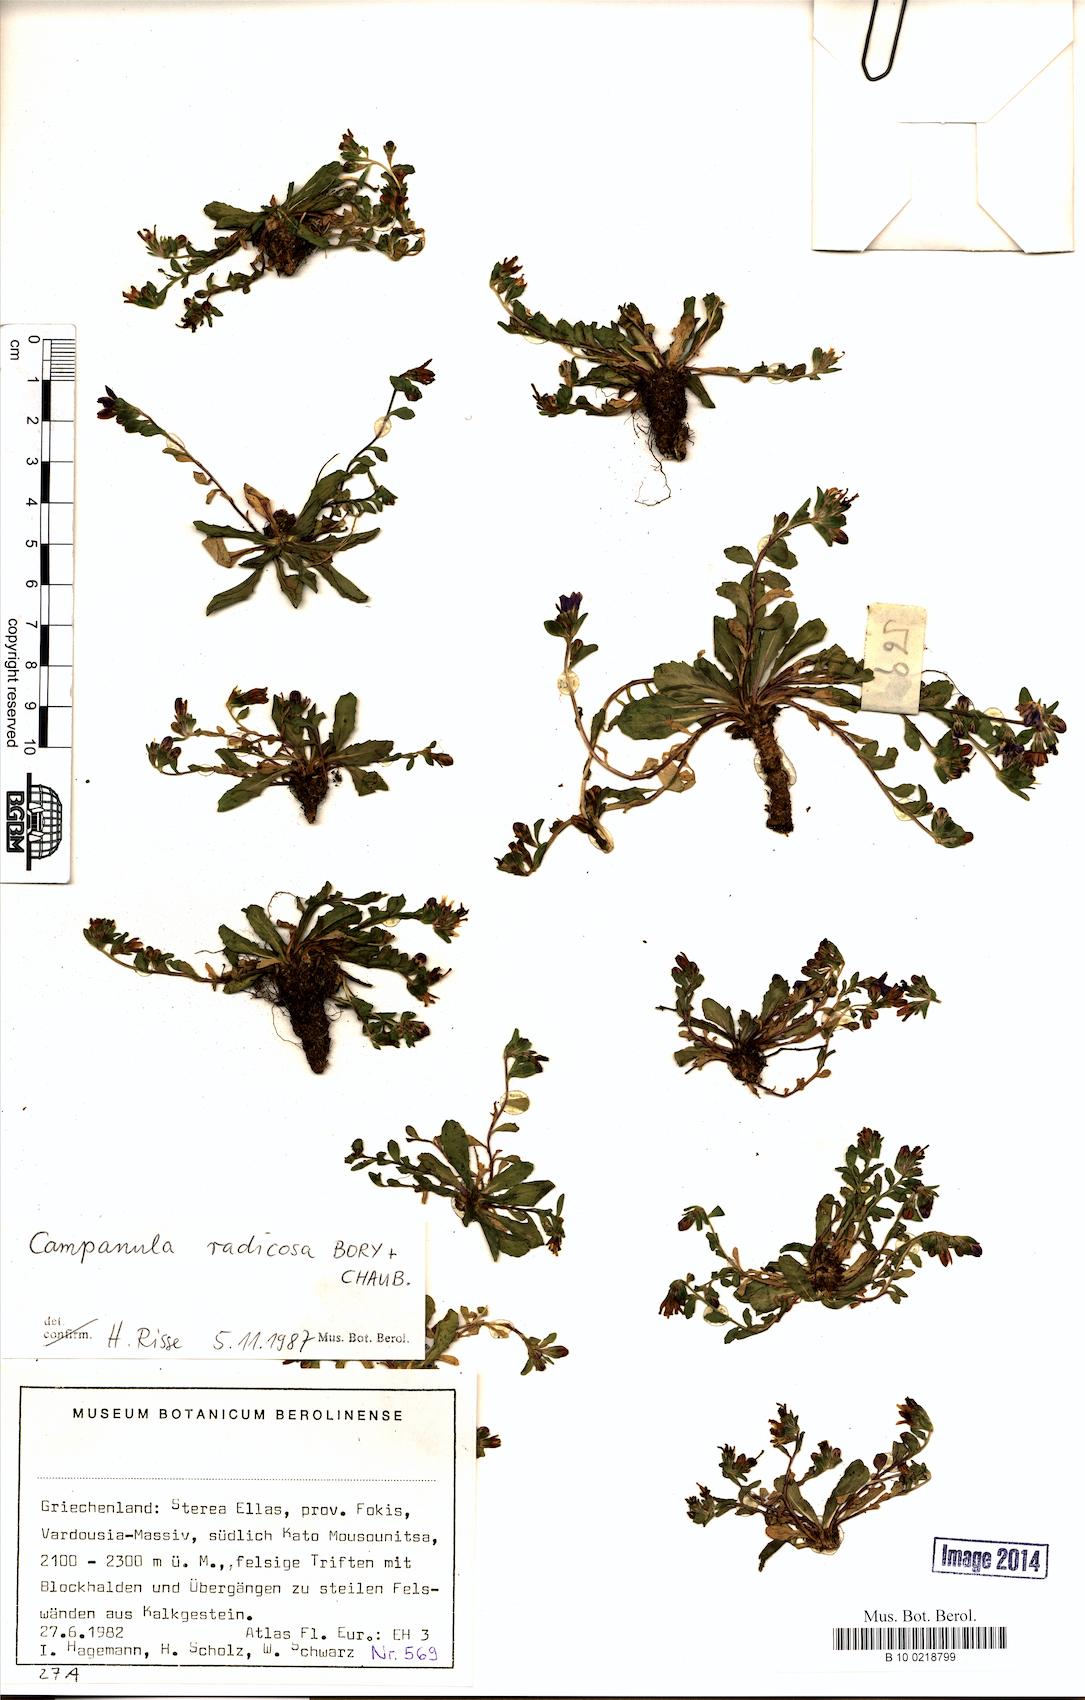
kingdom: Plantae
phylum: Tracheophyta
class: Magnoliopsida
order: Asterales
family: Campanulaceae
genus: Campanula
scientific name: Campanula radicosa
